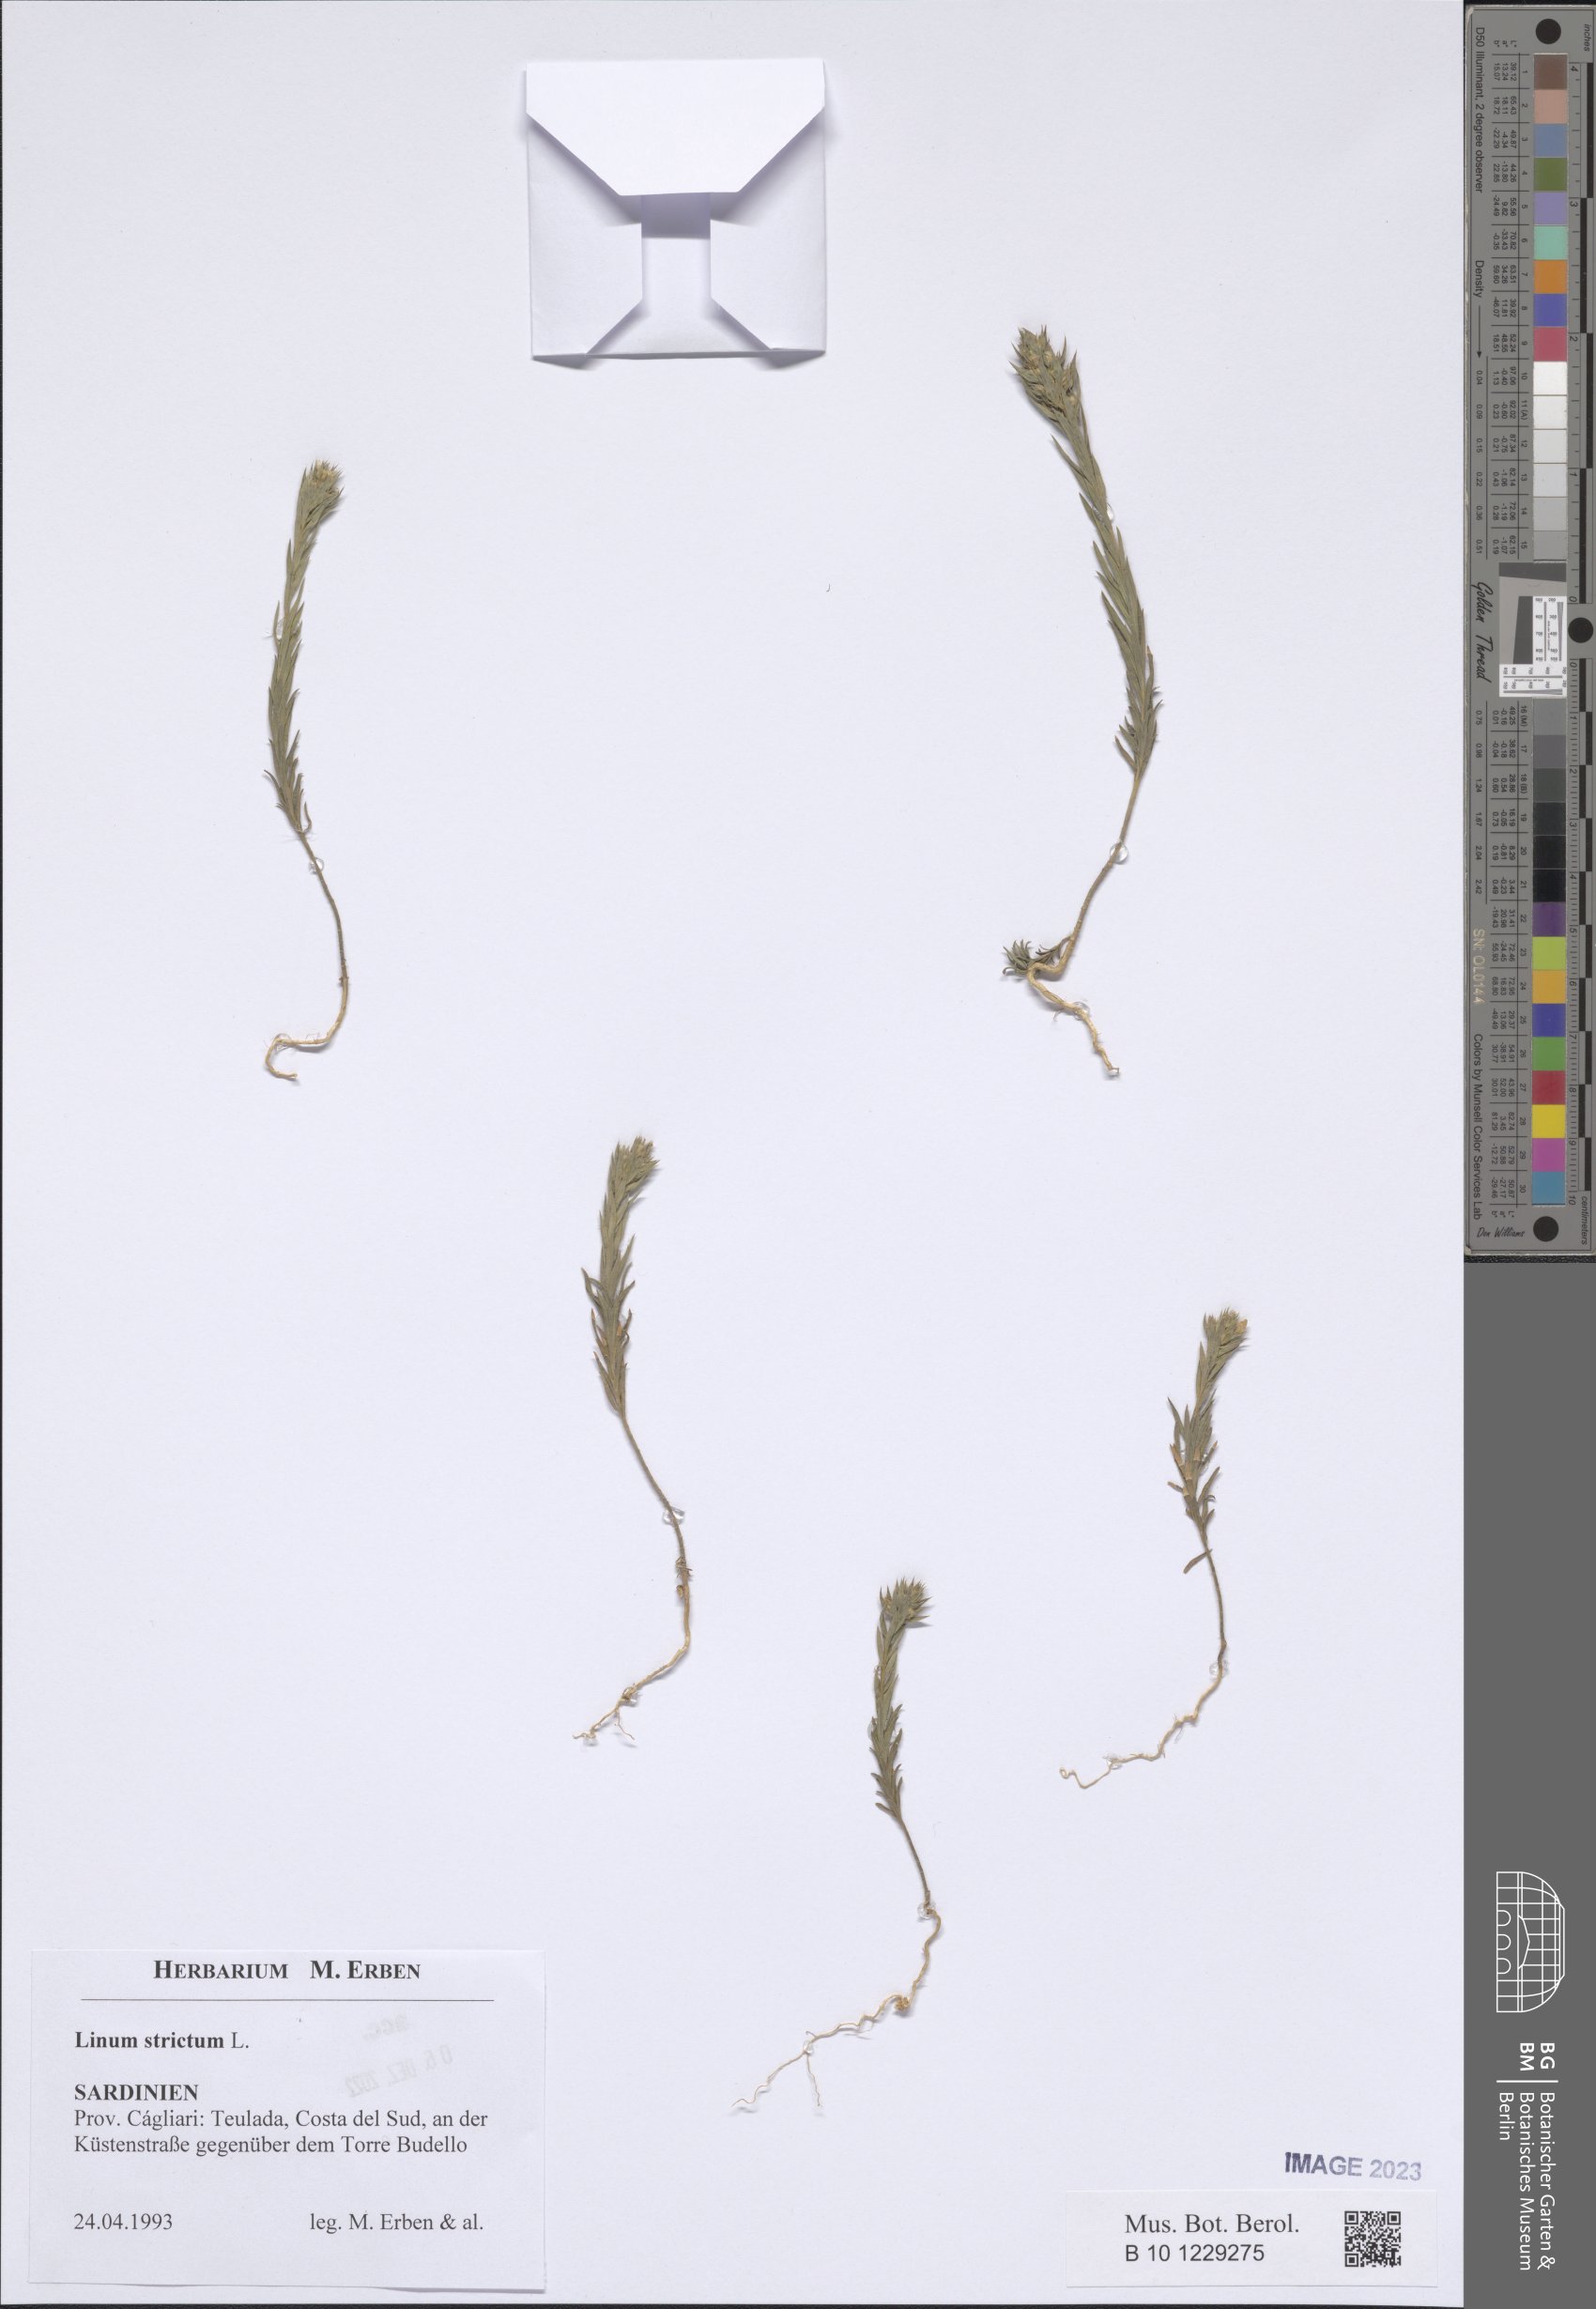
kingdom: Plantae
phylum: Tracheophyta
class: Magnoliopsida
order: Malpighiales
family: Linaceae
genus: Linum
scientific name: Linum strictum
